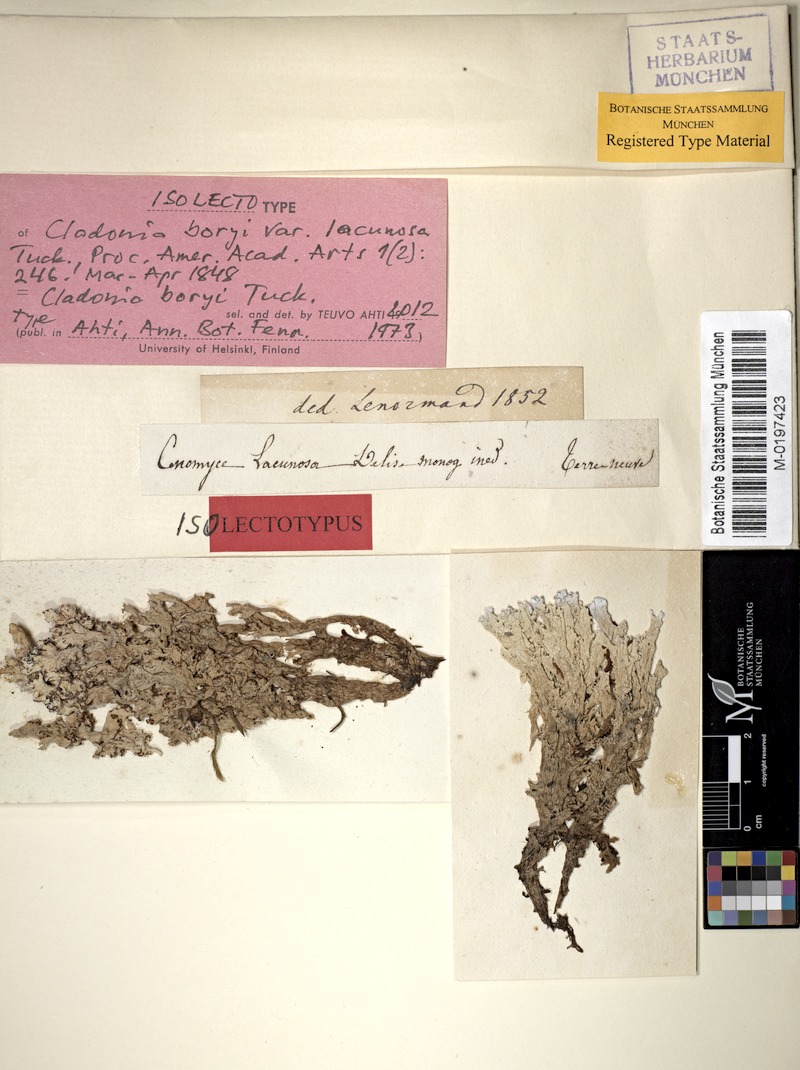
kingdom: Fungi
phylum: Ascomycota
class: Lecanoromycetes
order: Lecanorales
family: Cladoniaceae
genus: Cladonia
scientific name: Cladonia boryi
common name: Fishnet cladonia
